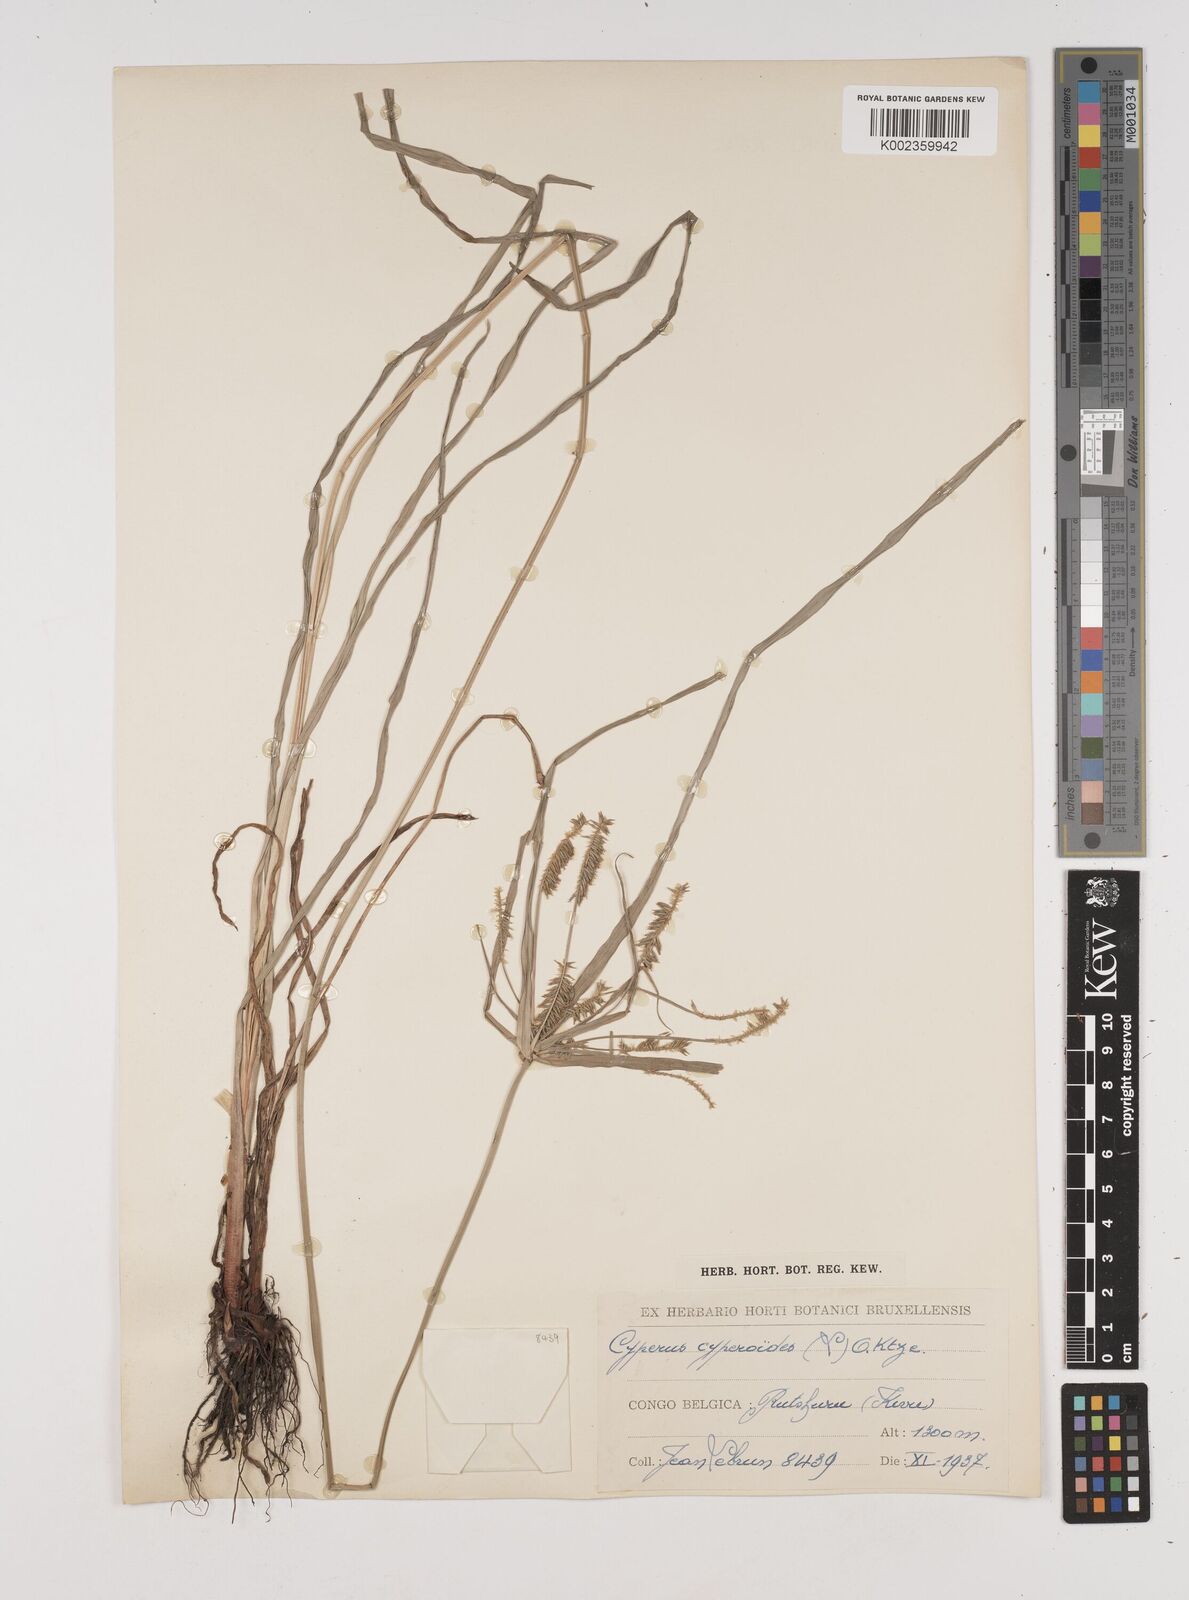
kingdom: Plantae
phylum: Tracheophyta
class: Liliopsida
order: Poales
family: Cyperaceae
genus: Cyperus
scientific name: Cyperus cyperoides
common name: Pacific island flat sedge
